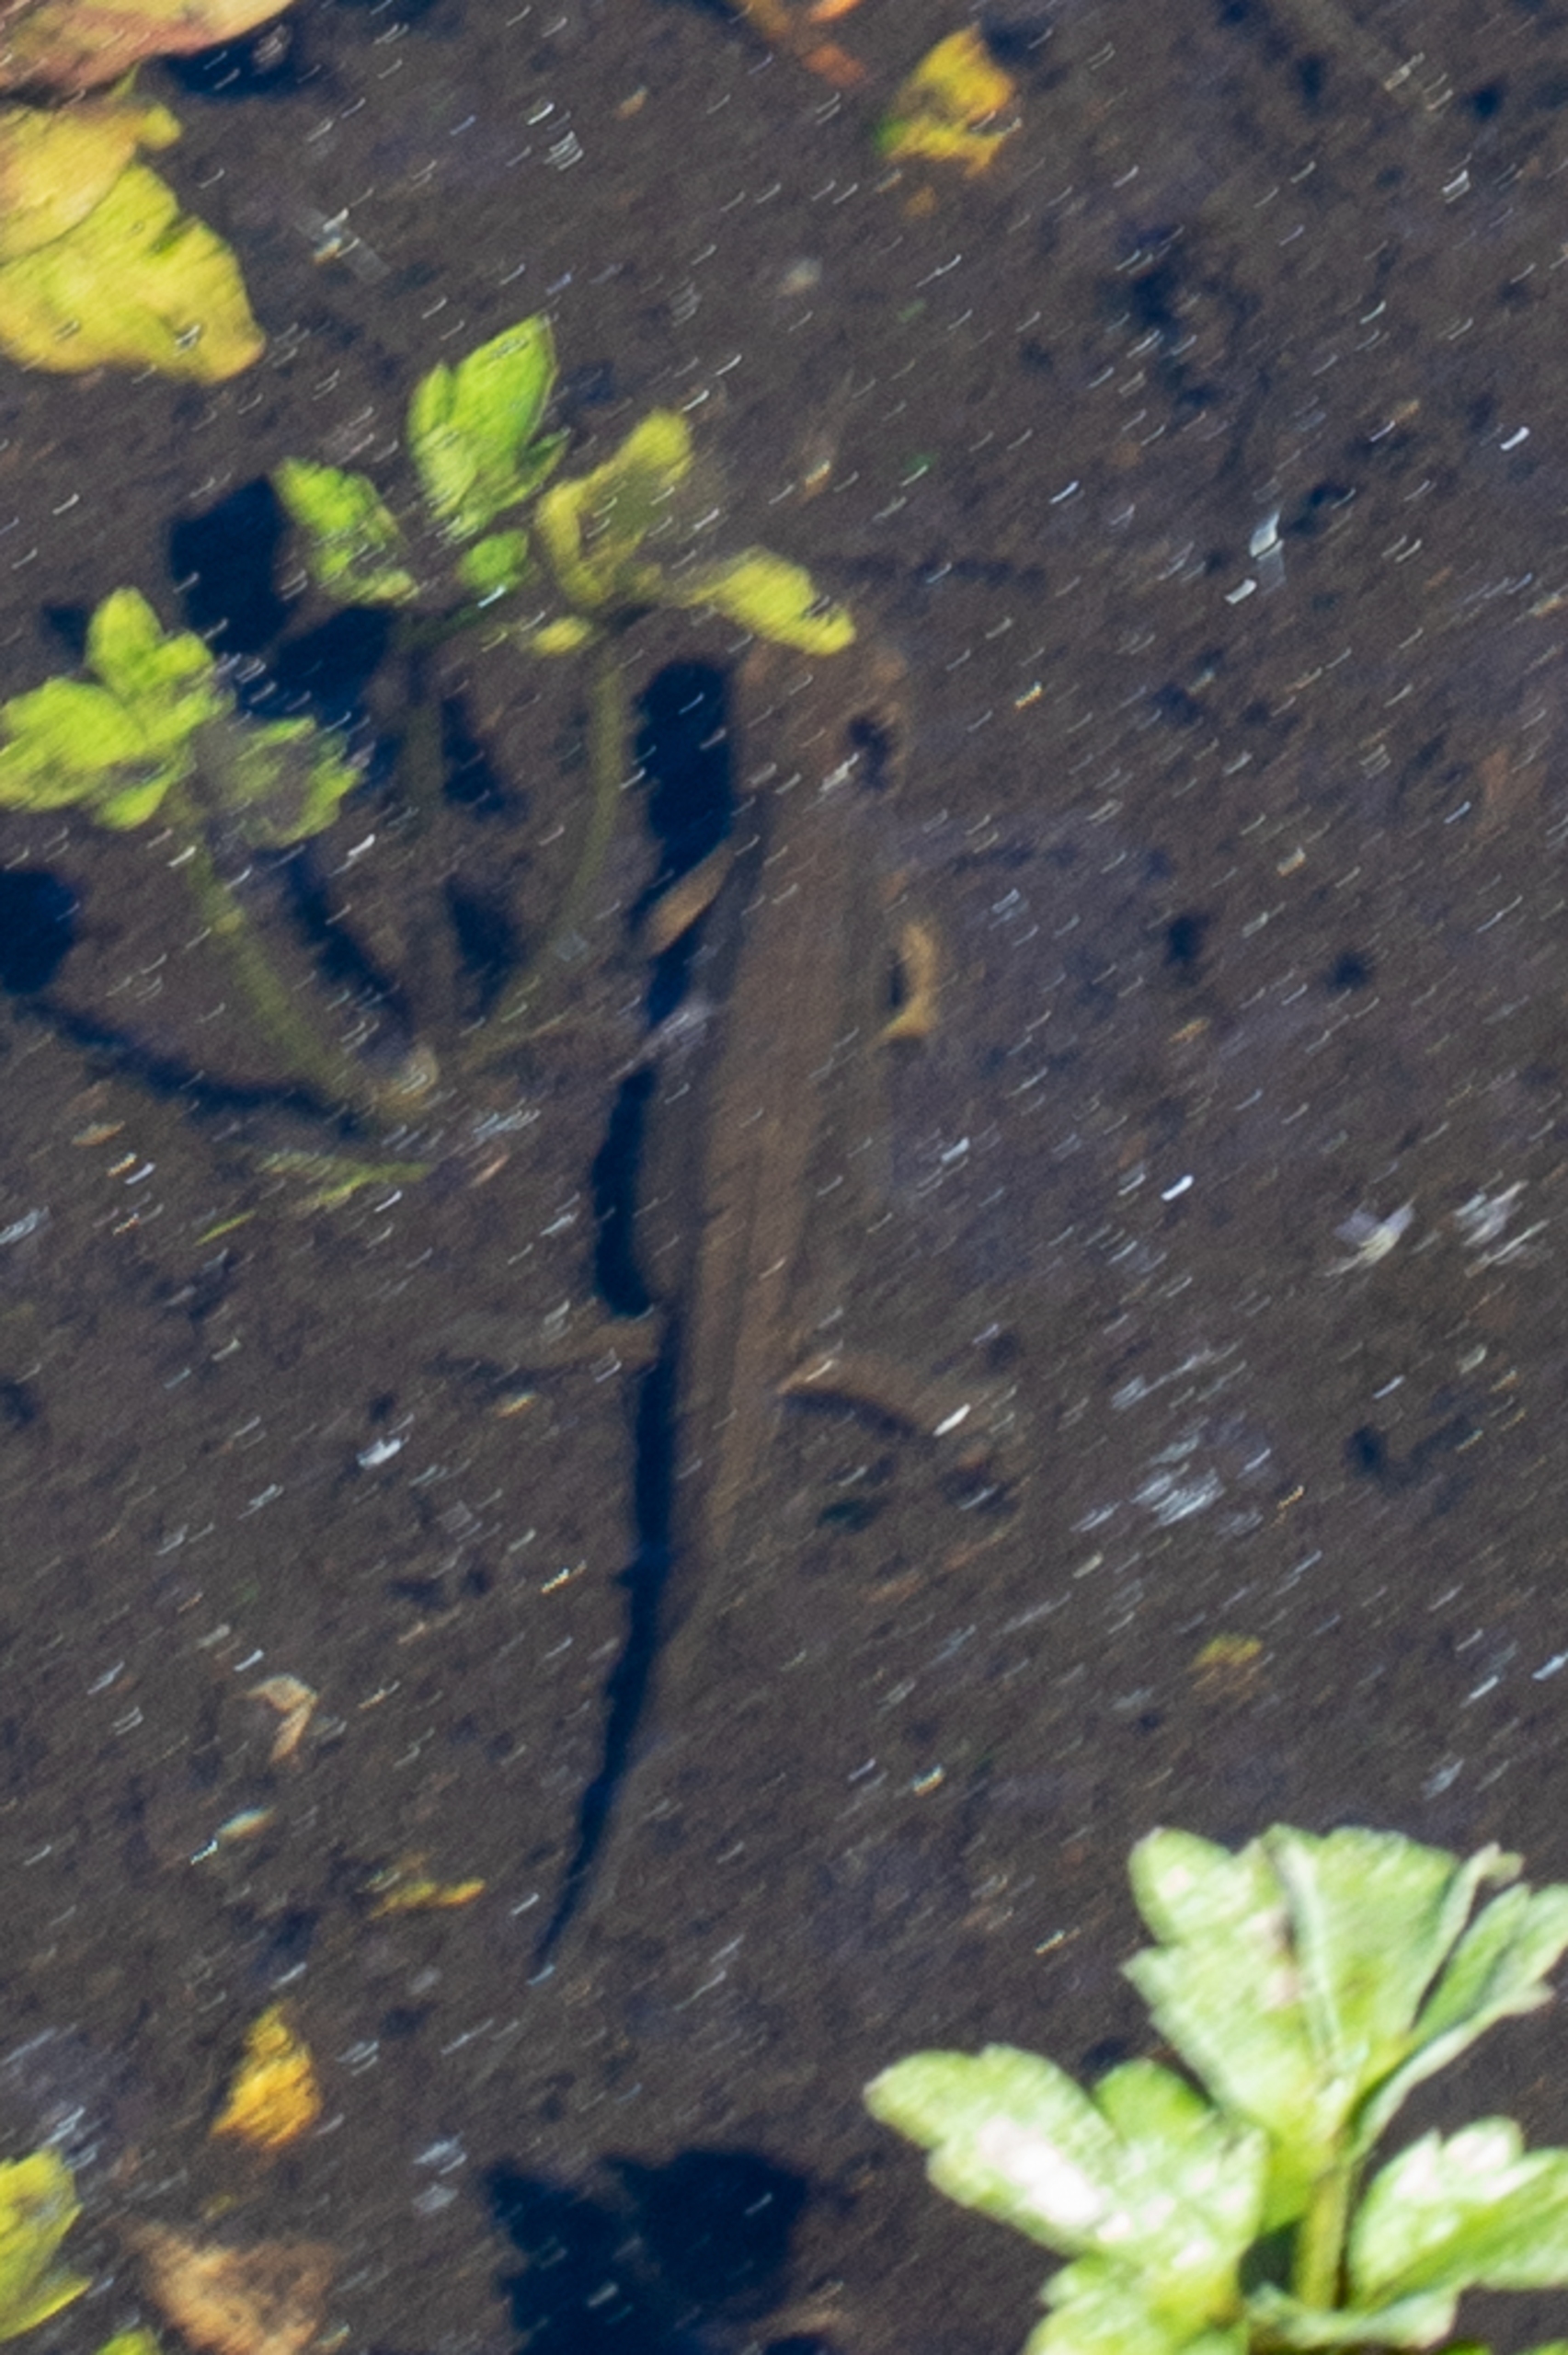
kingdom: Animalia
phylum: Chordata
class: Amphibia
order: Caudata
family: Salamandridae
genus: Lissotriton
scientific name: Lissotriton vulgaris
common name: Lille vandsalamander
